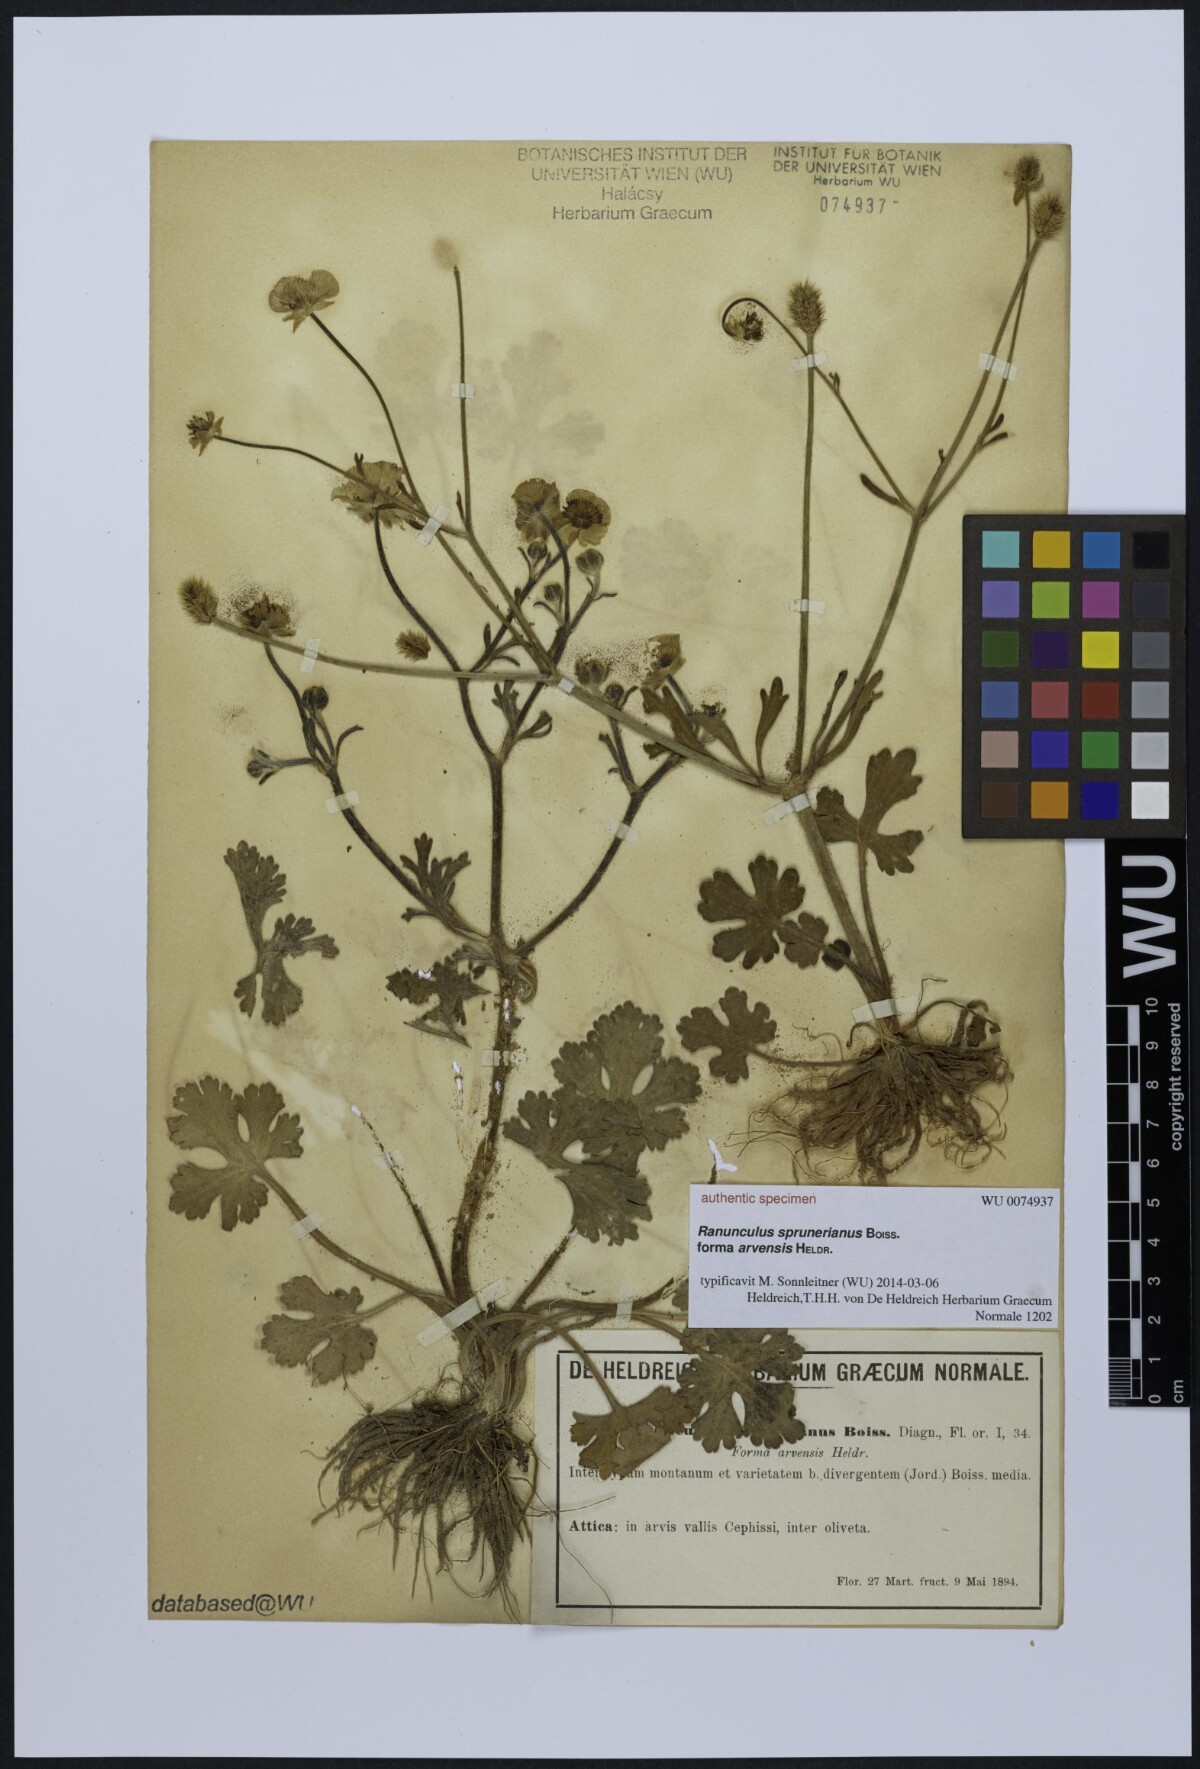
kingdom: Plantae
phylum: Tracheophyta
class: Magnoliopsida
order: Ranunculales
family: Ranunculaceae
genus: Ranunculus
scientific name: Ranunculus sprunerianus
